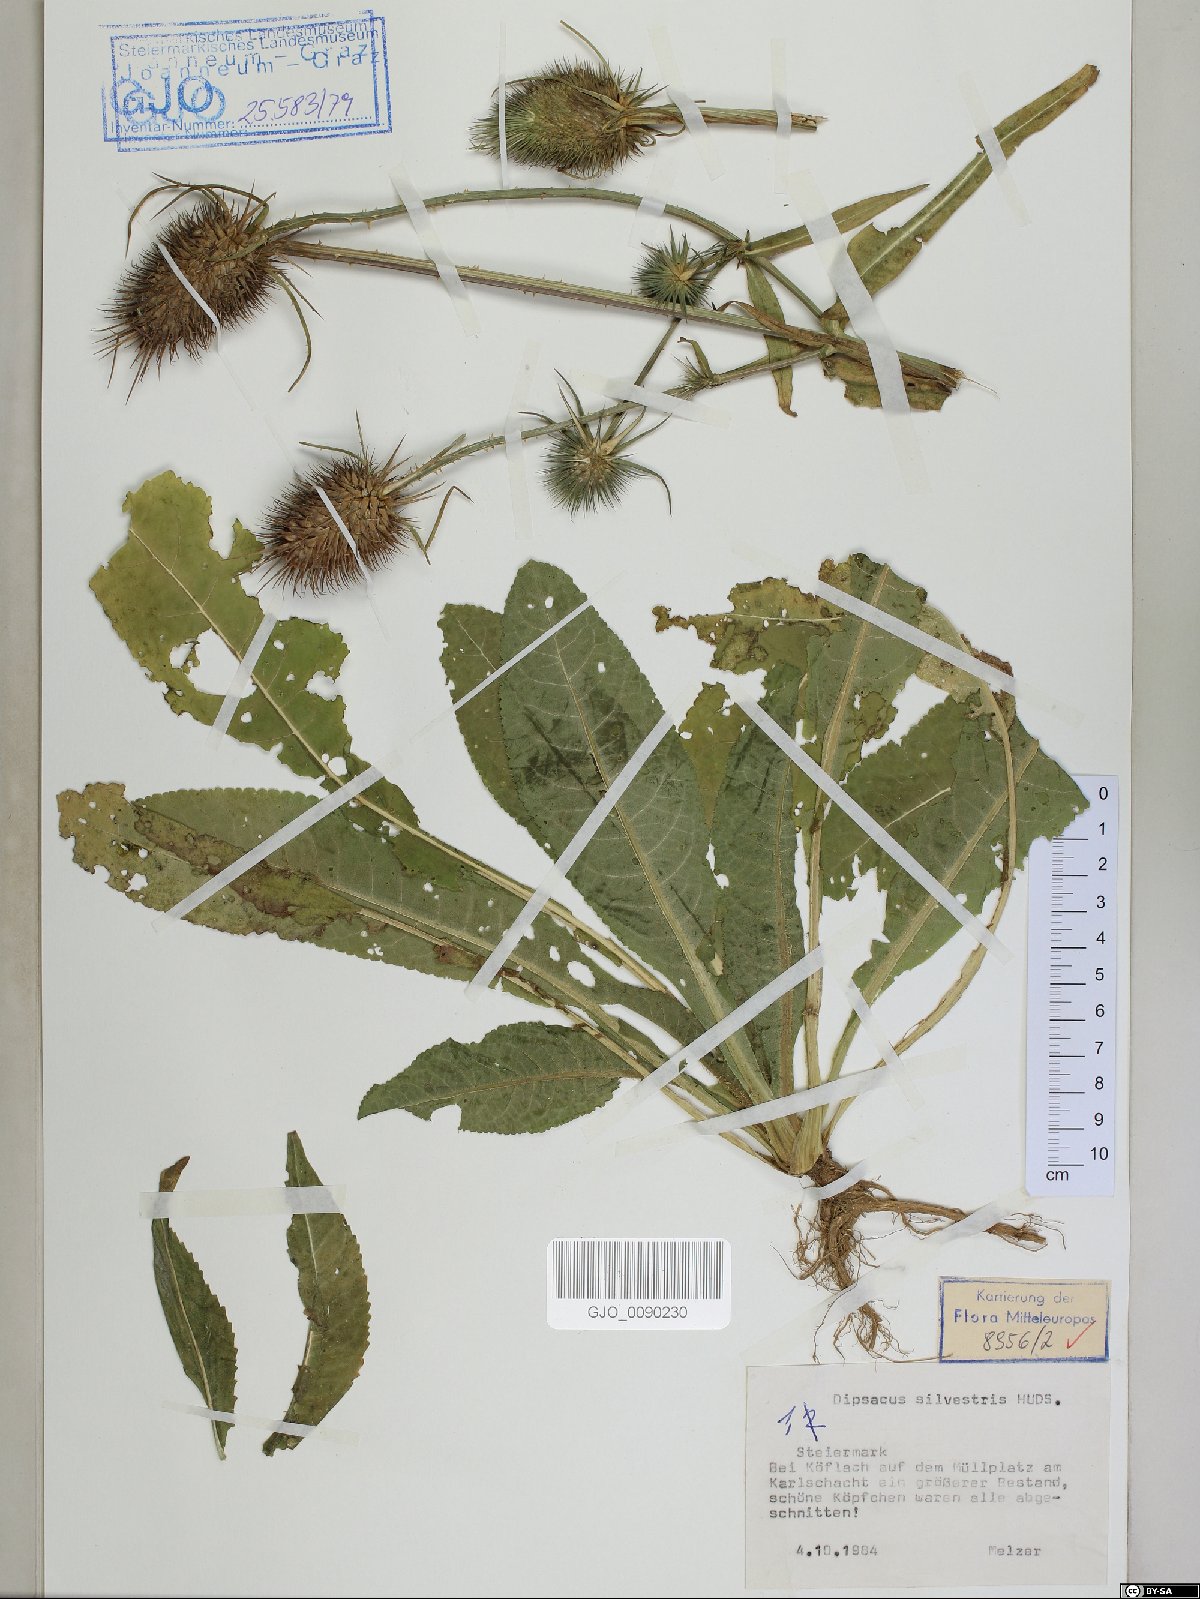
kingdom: Plantae
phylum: Tracheophyta
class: Magnoliopsida
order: Dipsacales
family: Caprifoliaceae
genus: Dipsacus
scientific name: Dipsacus fullonum
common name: Teasel
